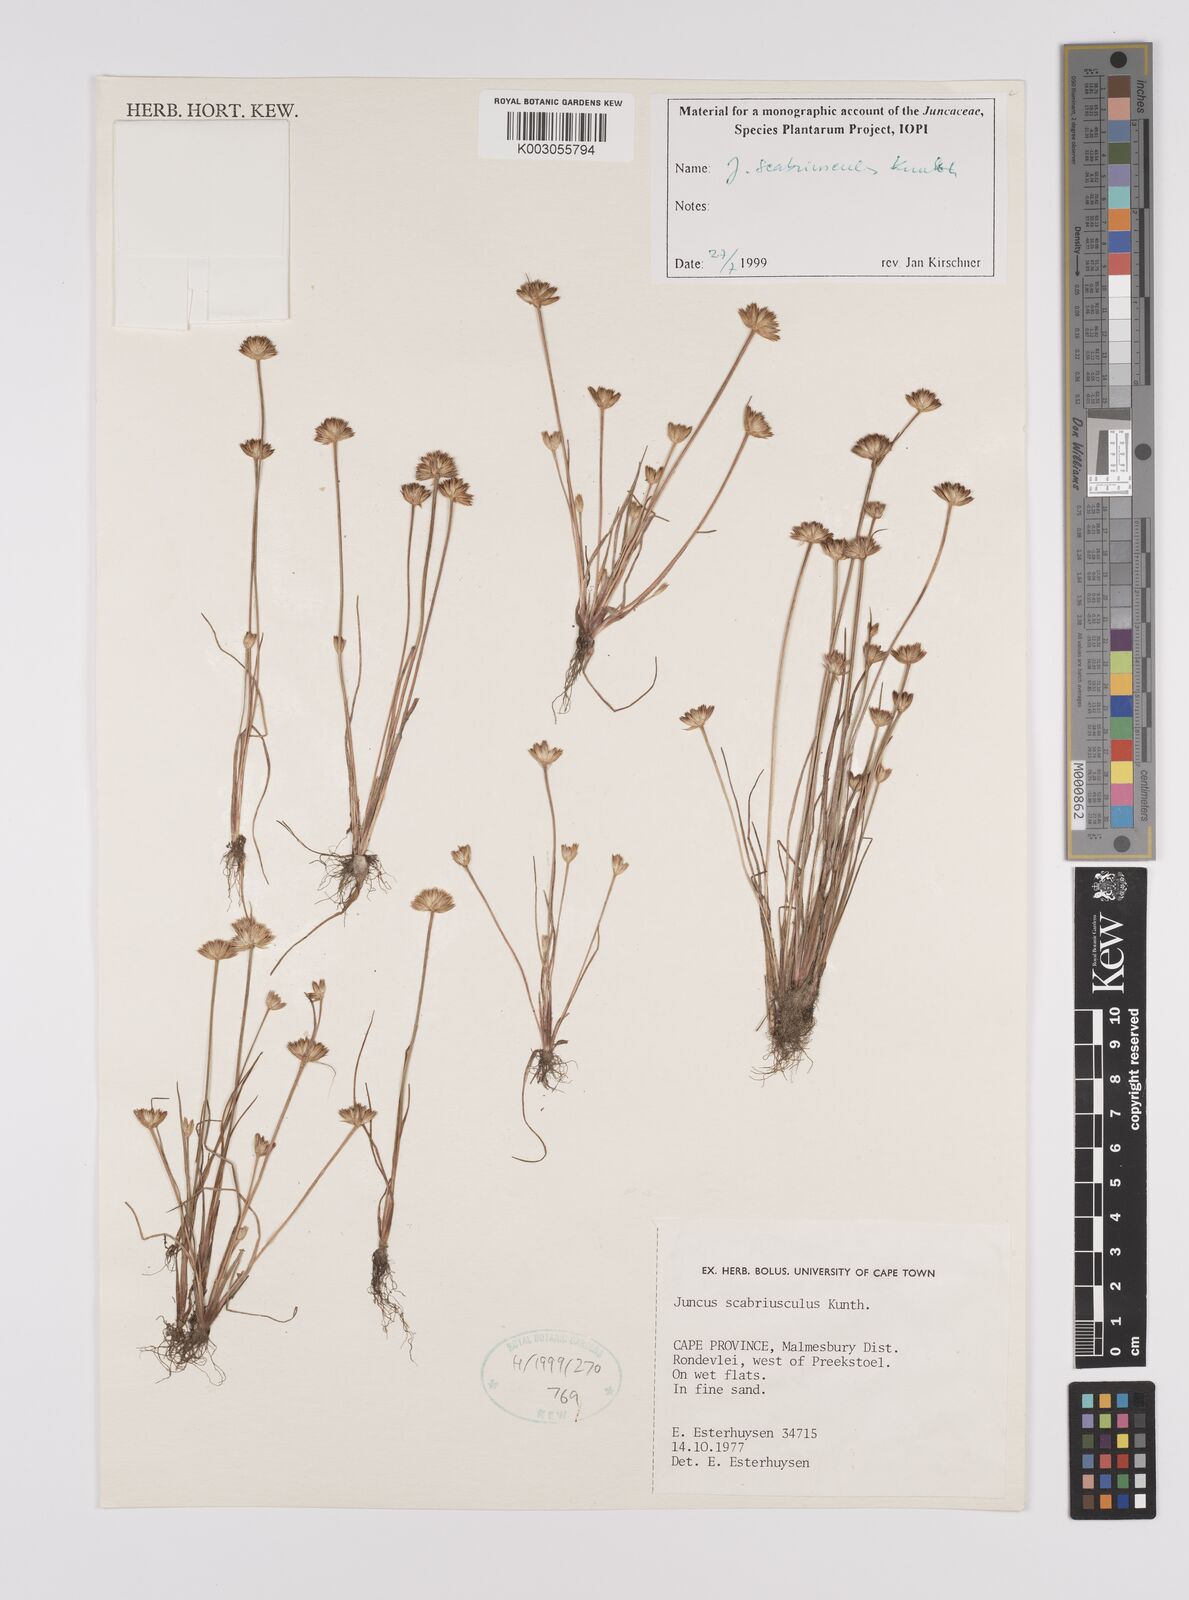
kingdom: Plantae
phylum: Tracheophyta
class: Liliopsida
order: Poales
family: Juncaceae
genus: Juncus
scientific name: Juncus scabriusculus
